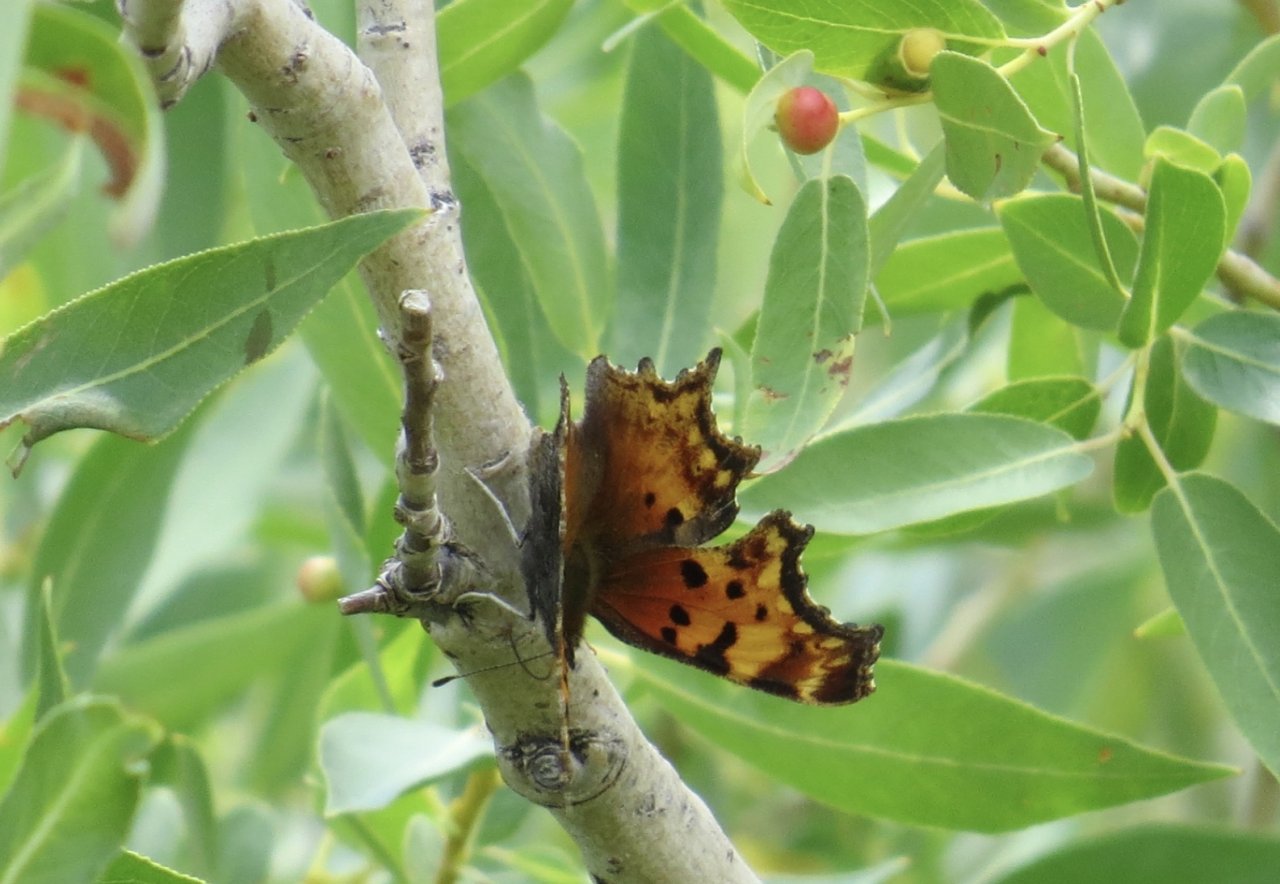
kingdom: Animalia
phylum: Arthropoda
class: Insecta
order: Lepidoptera
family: Nymphalidae
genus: Polygonia
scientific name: Polygonia gracilis
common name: Hoary Comma
